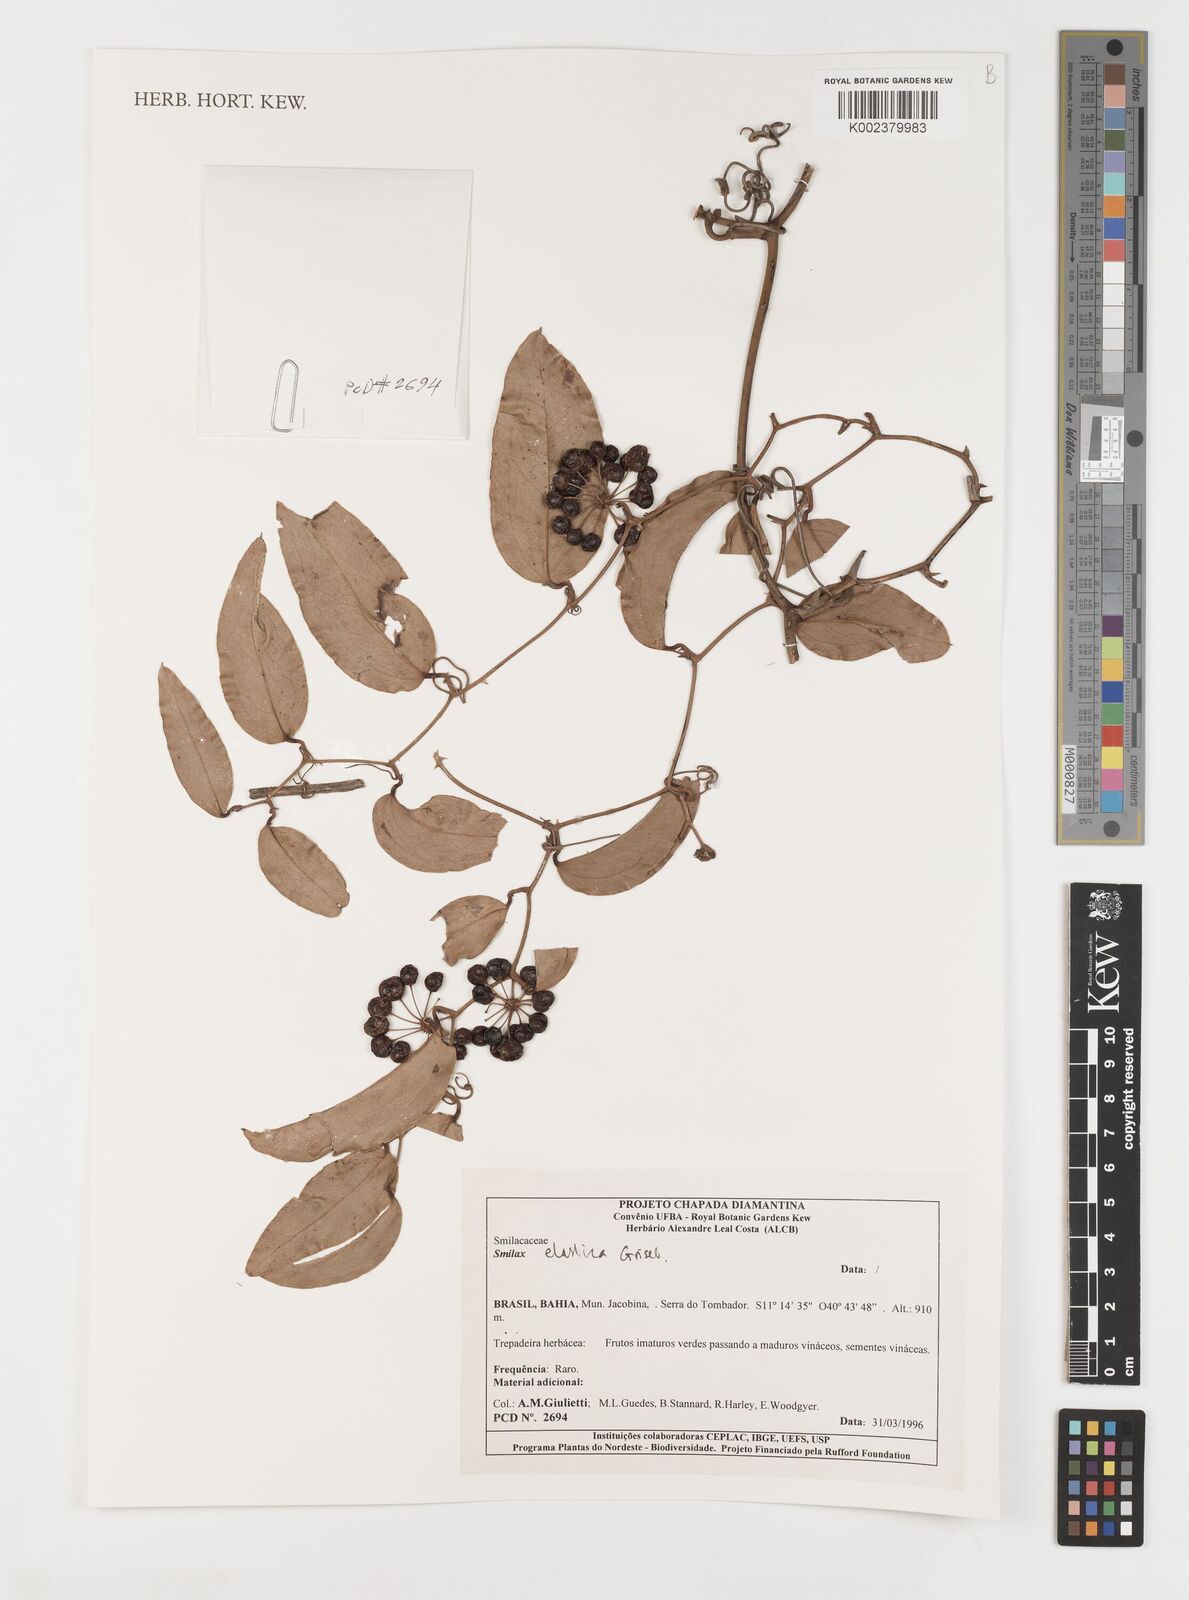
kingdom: Plantae
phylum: Tracheophyta
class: Liliopsida
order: Liliales
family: Smilacaceae
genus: Smilax
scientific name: Smilax elastica
